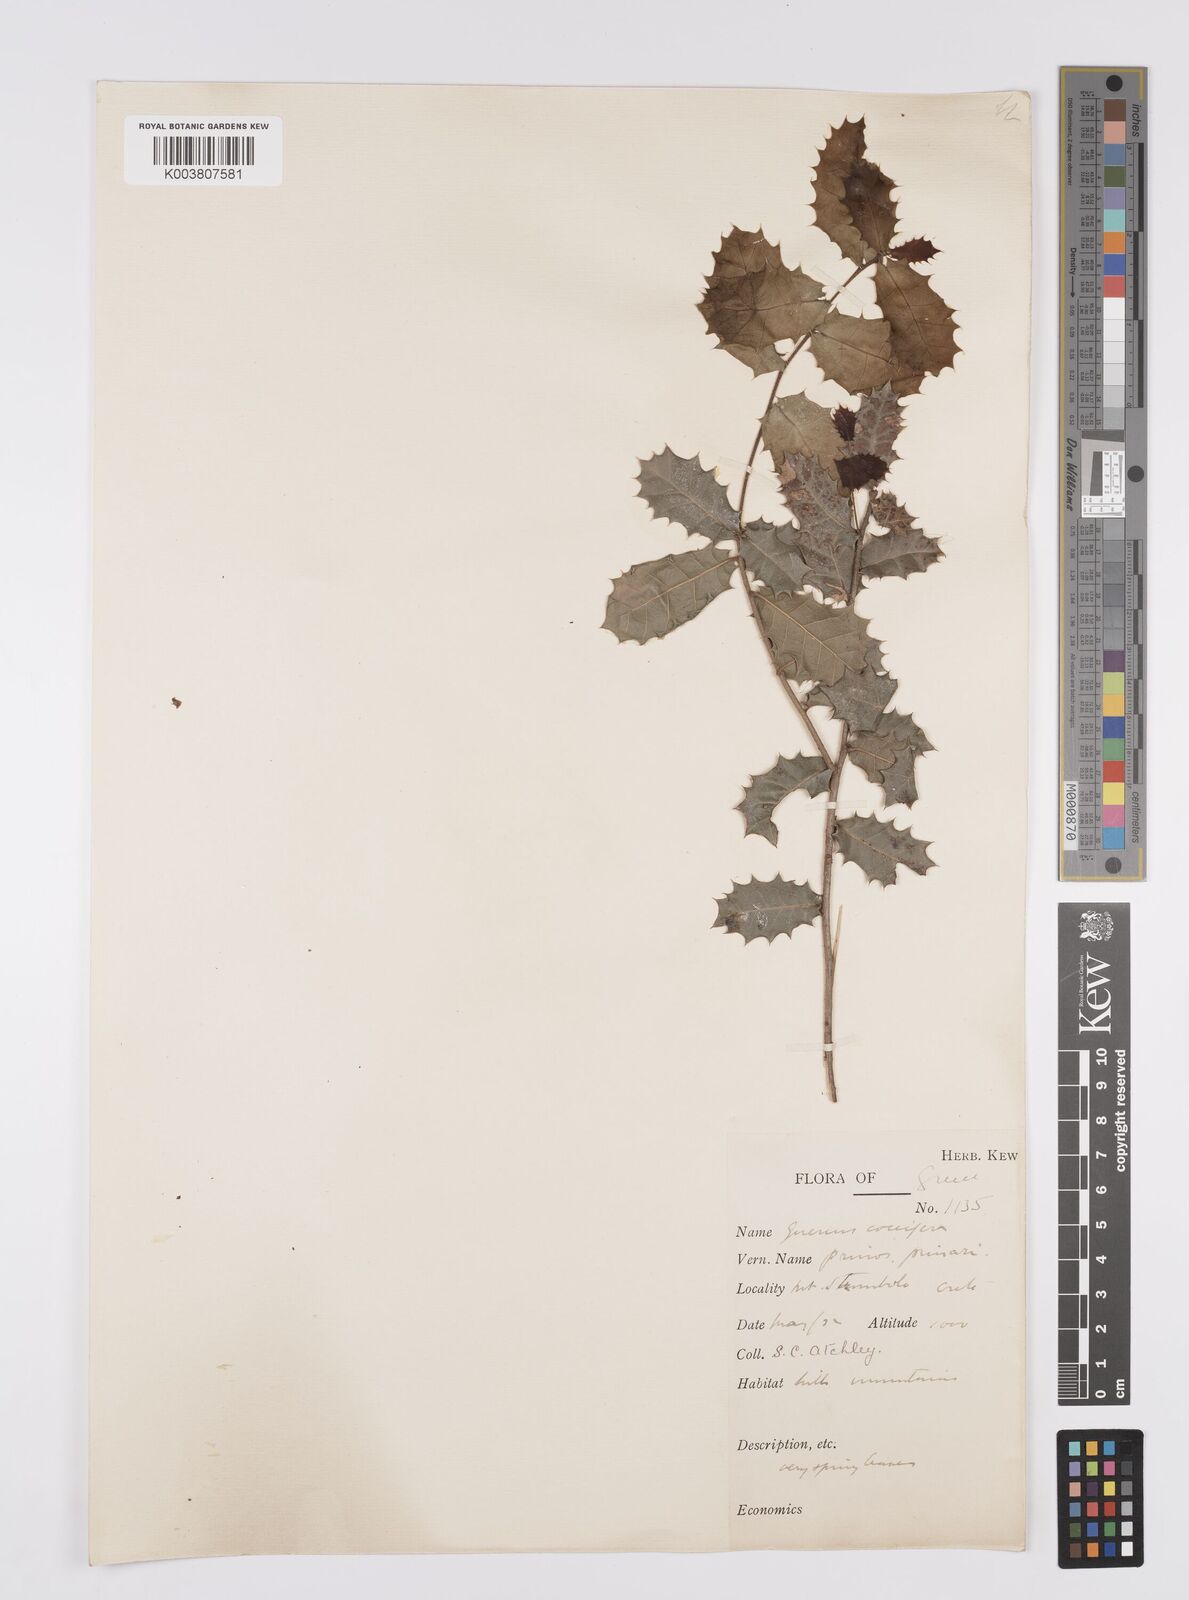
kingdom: Plantae
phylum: Tracheophyta
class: Magnoliopsida
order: Fagales
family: Fagaceae
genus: Quercus
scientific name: Quercus coccifera
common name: Kermes oak
